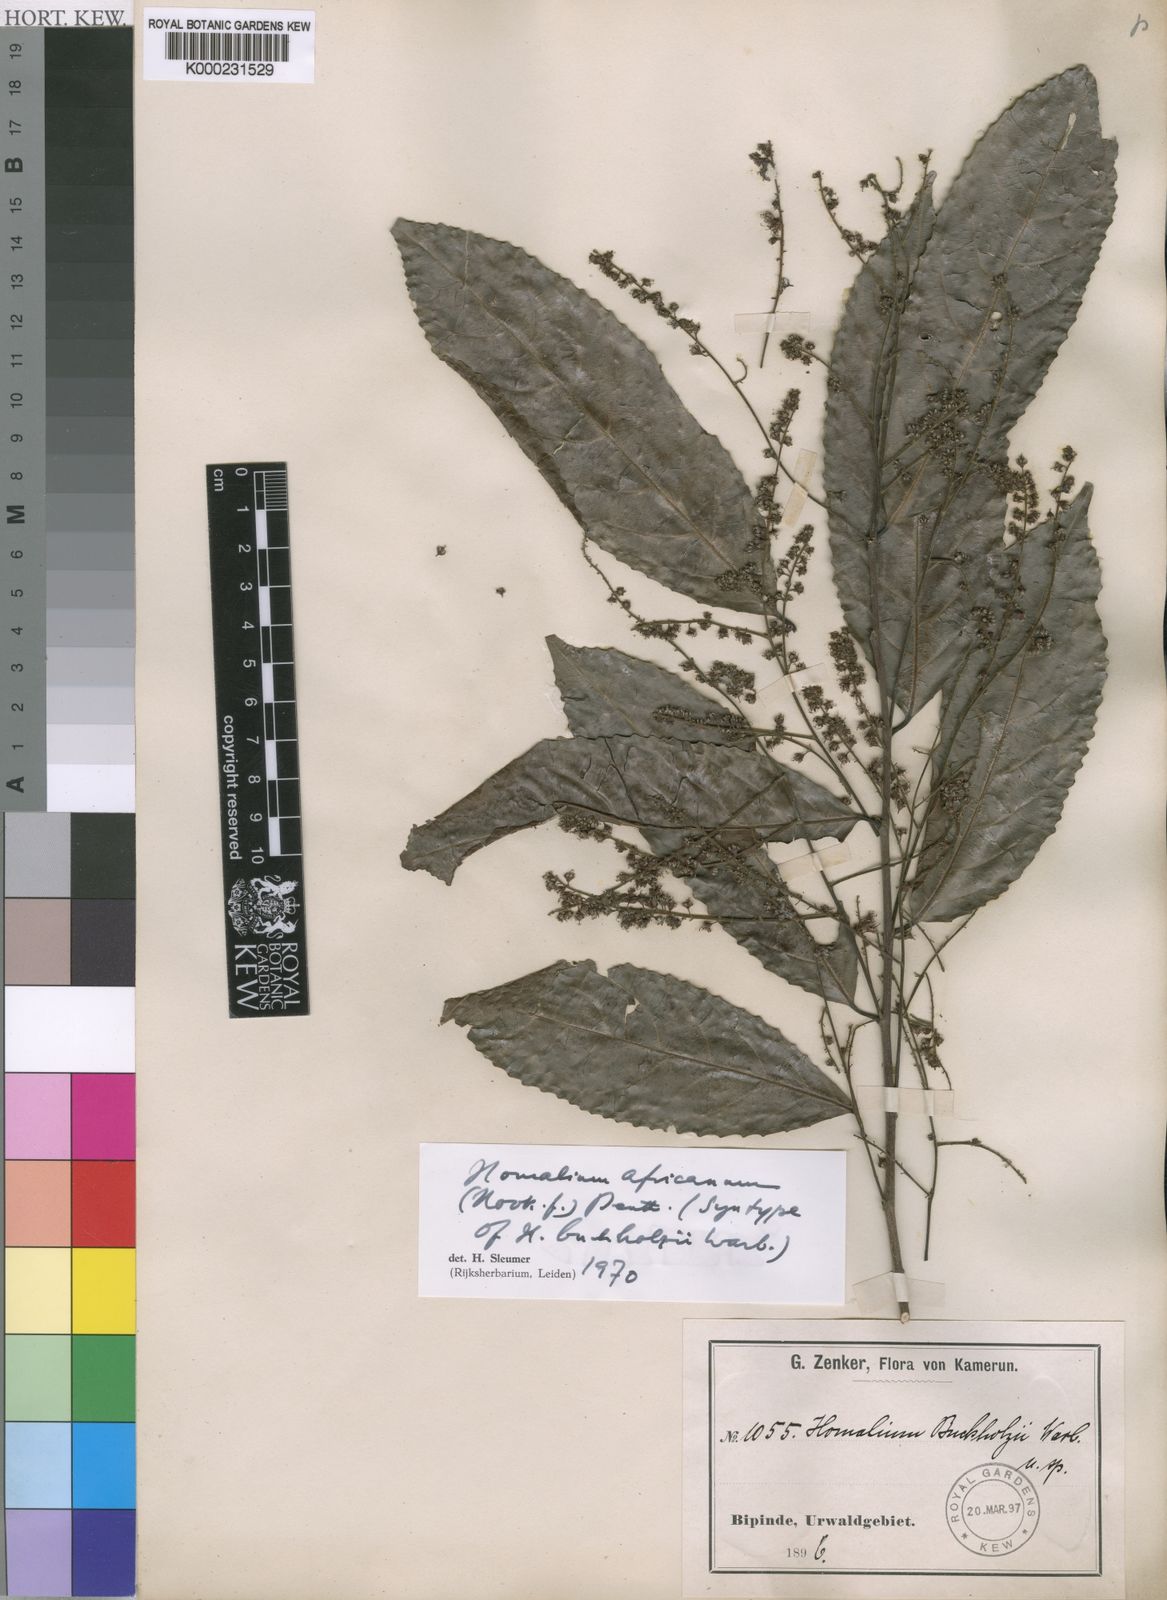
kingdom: Plantae
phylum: Tracheophyta
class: Magnoliopsida
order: Malpighiales
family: Salicaceae
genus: Homalium
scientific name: Homalium africanum
